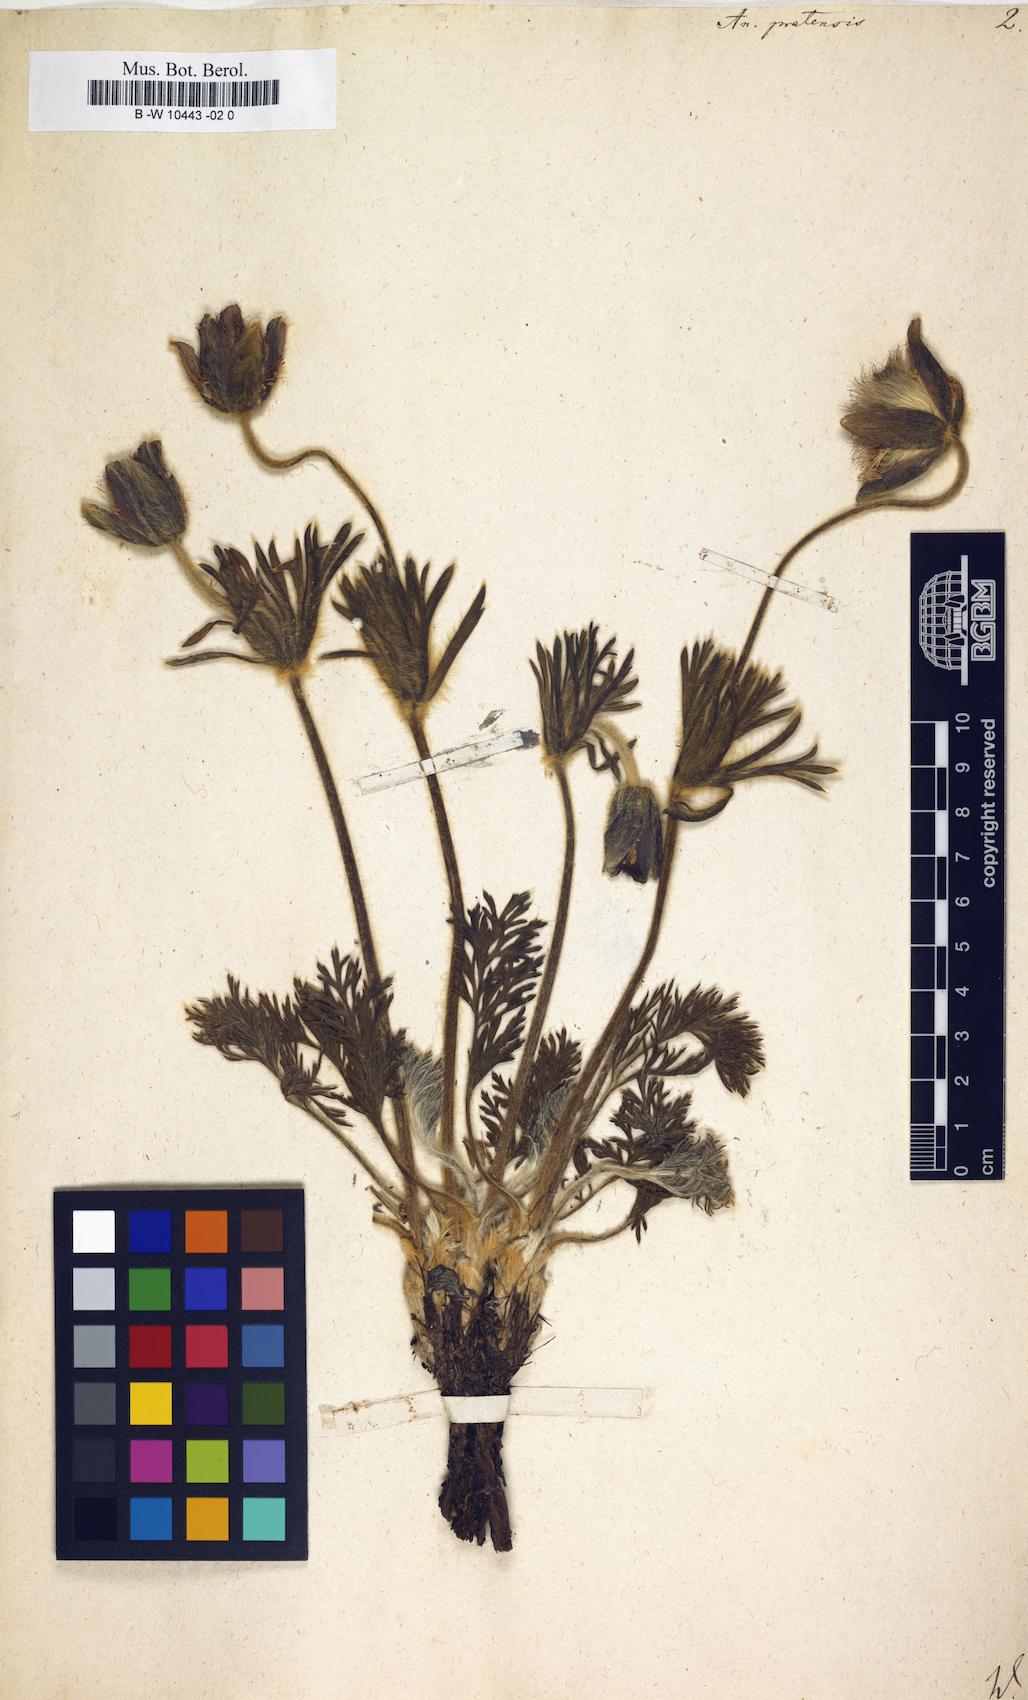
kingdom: Plantae
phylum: Tracheophyta
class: Magnoliopsida
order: Ranunculales
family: Ranunculaceae
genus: Pulsatilla
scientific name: Pulsatilla pratensis
